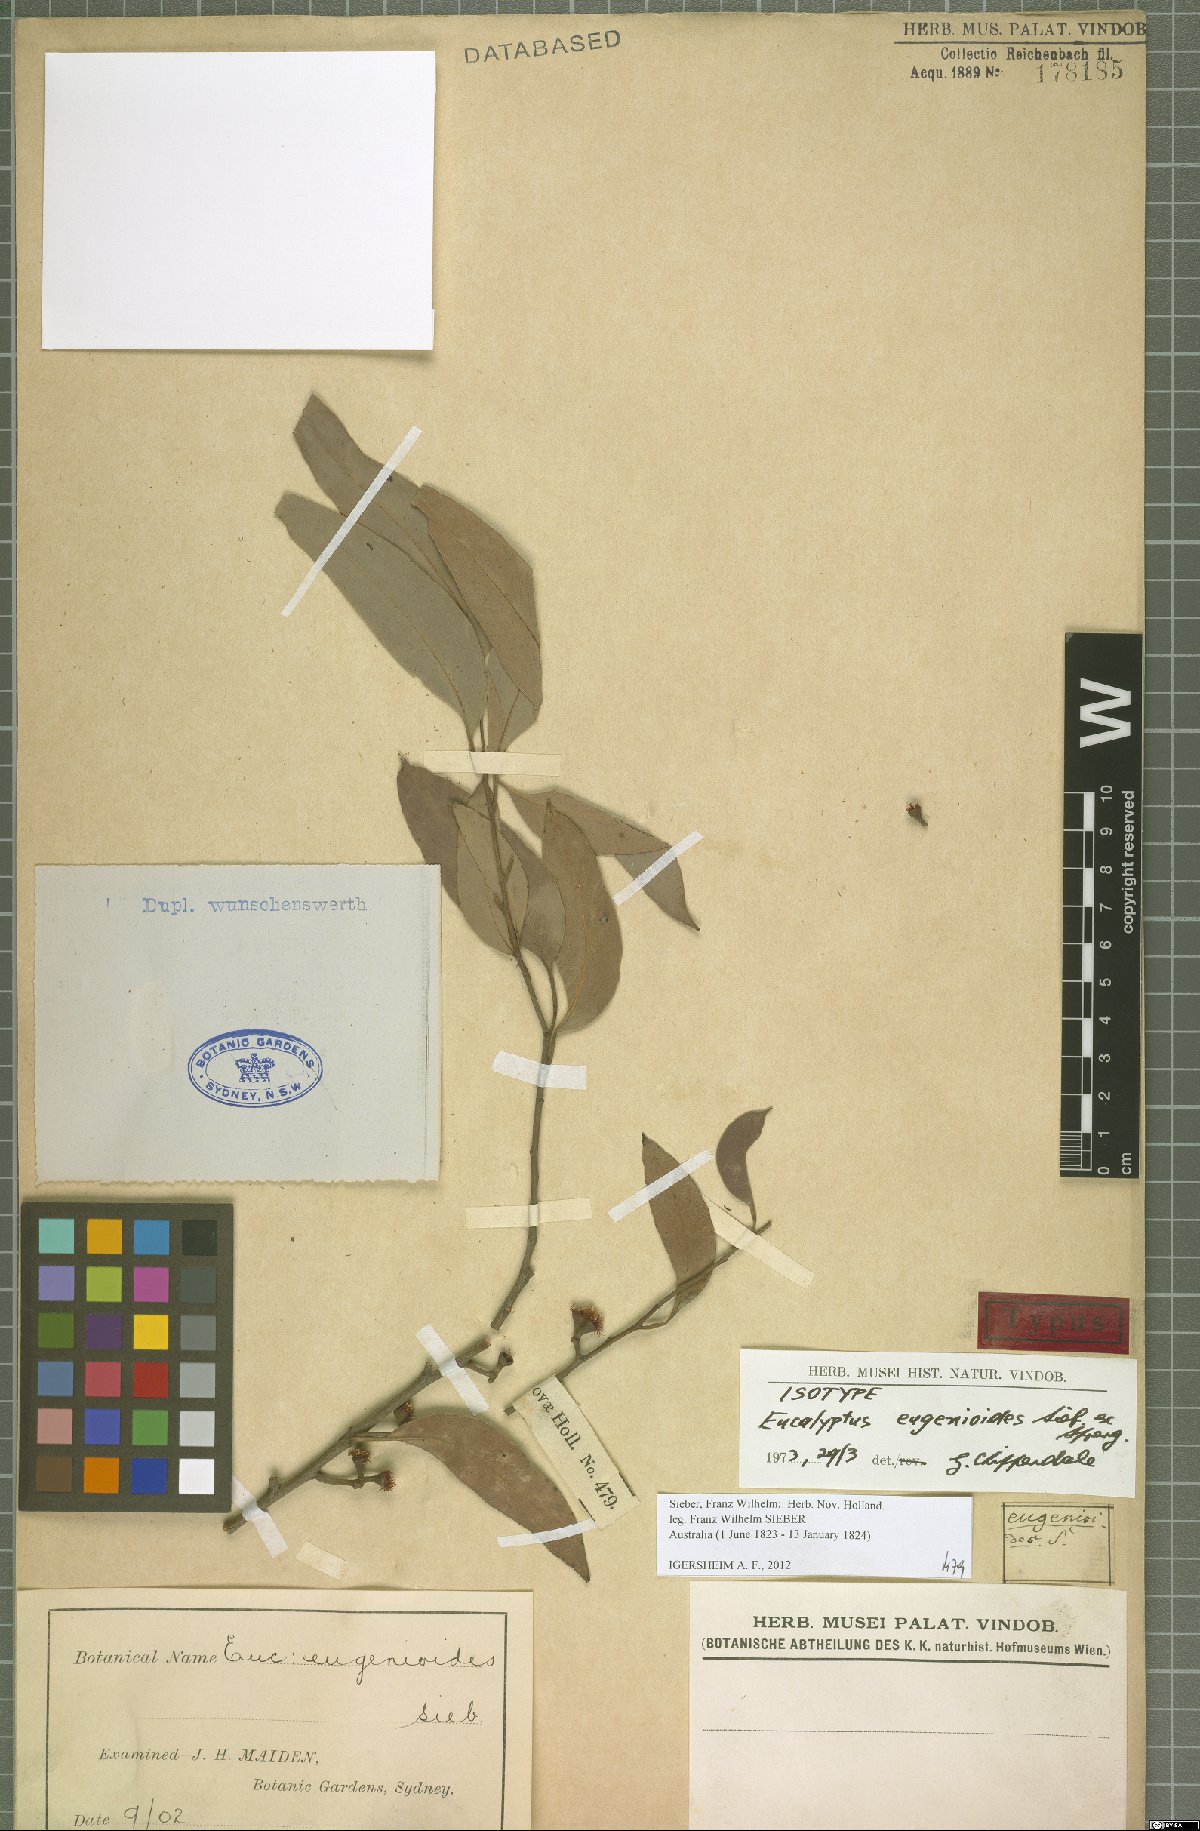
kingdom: Plantae
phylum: Tracheophyta
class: Magnoliopsida
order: Myrtales
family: Myrtaceae
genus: Eucalyptus
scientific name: Eucalyptus eugenioides
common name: Narrow-leaved-stringybark
